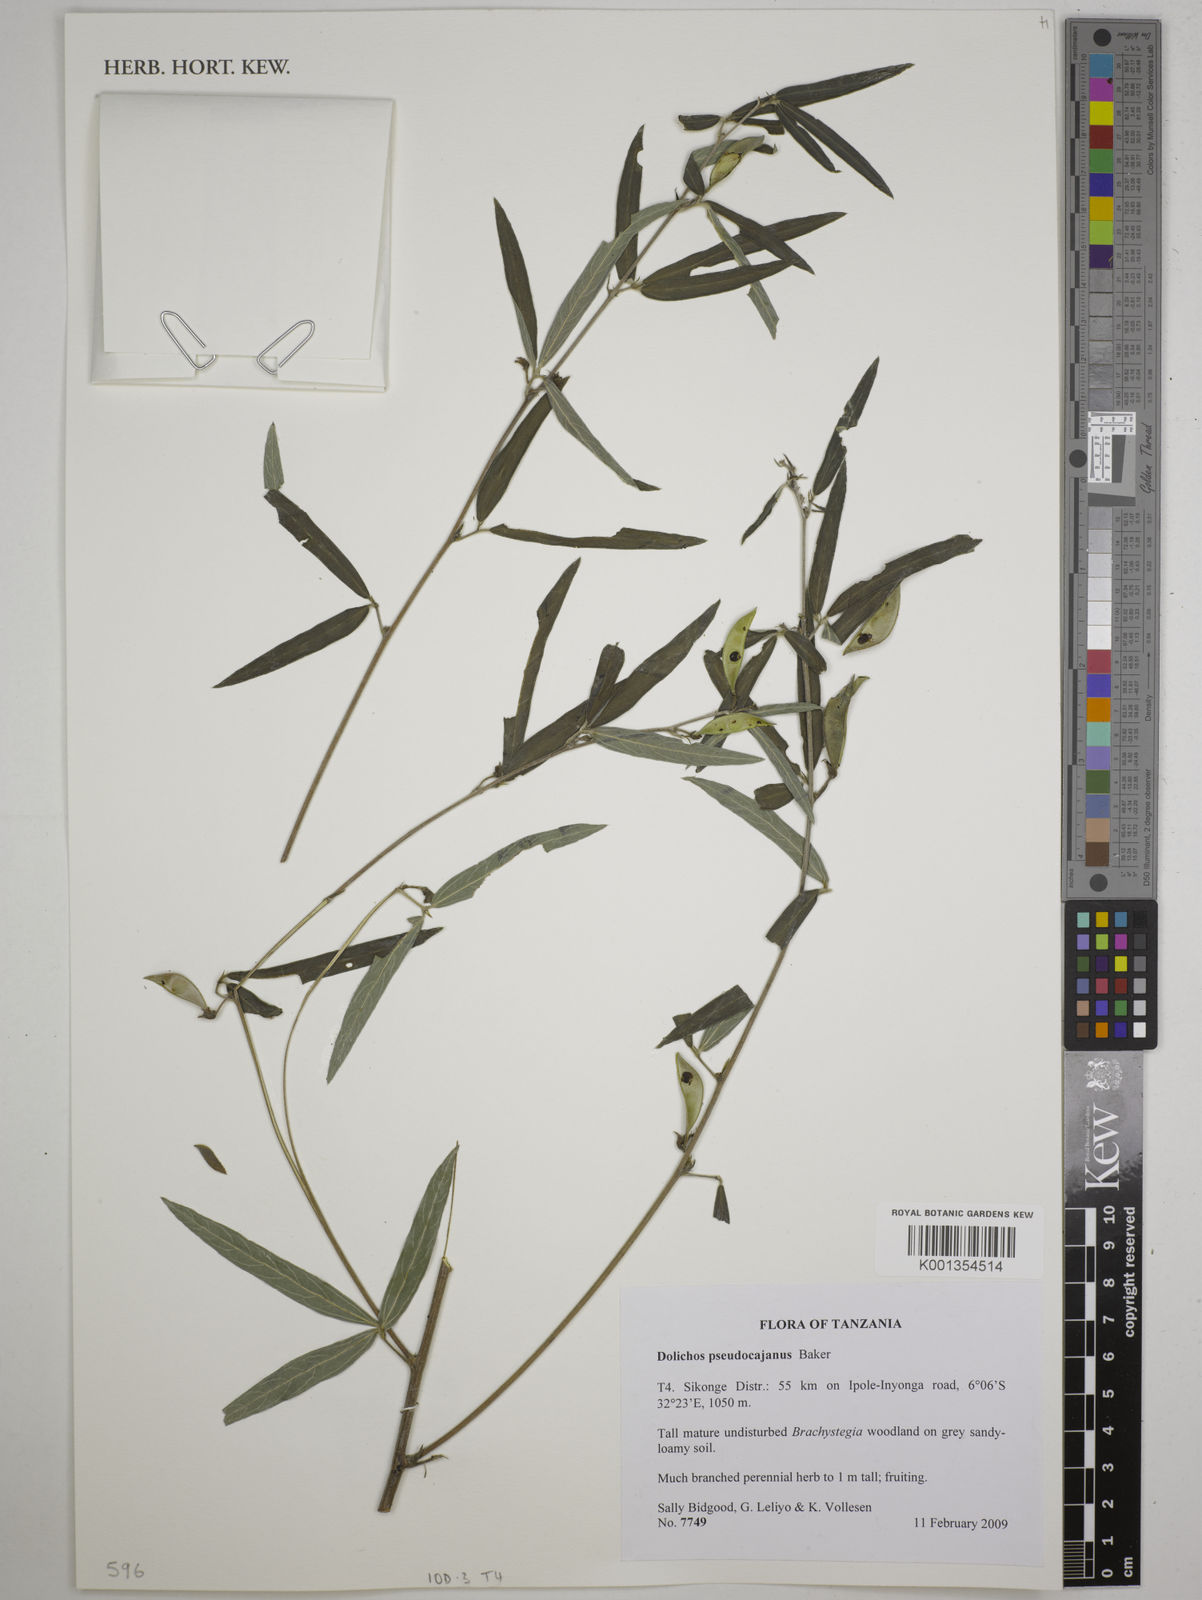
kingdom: Plantae
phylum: Tracheophyta
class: Magnoliopsida
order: Fabales
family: Fabaceae
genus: Dolichos
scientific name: Dolichos pseudocajanus
